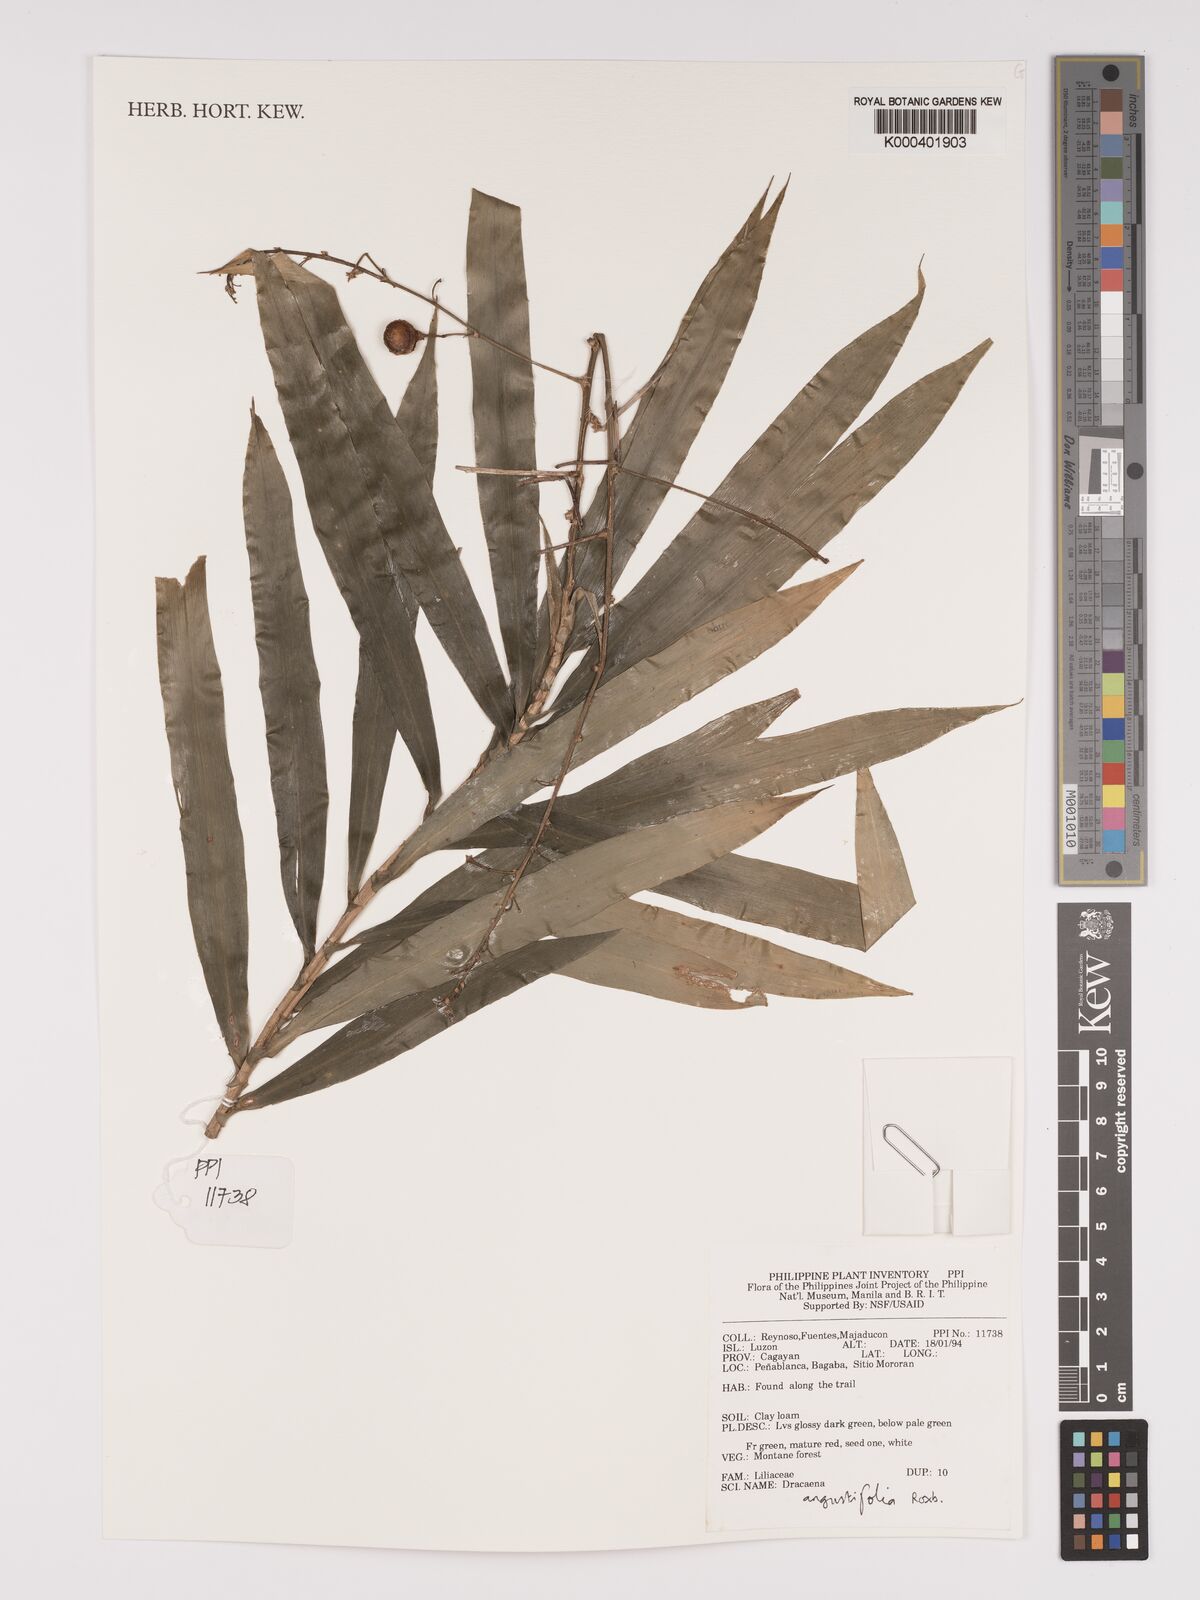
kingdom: Plantae
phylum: Tracheophyta
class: Liliopsida
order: Asparagales
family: Asparagaceae
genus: Dracaena
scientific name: Dracaena angustifolia
